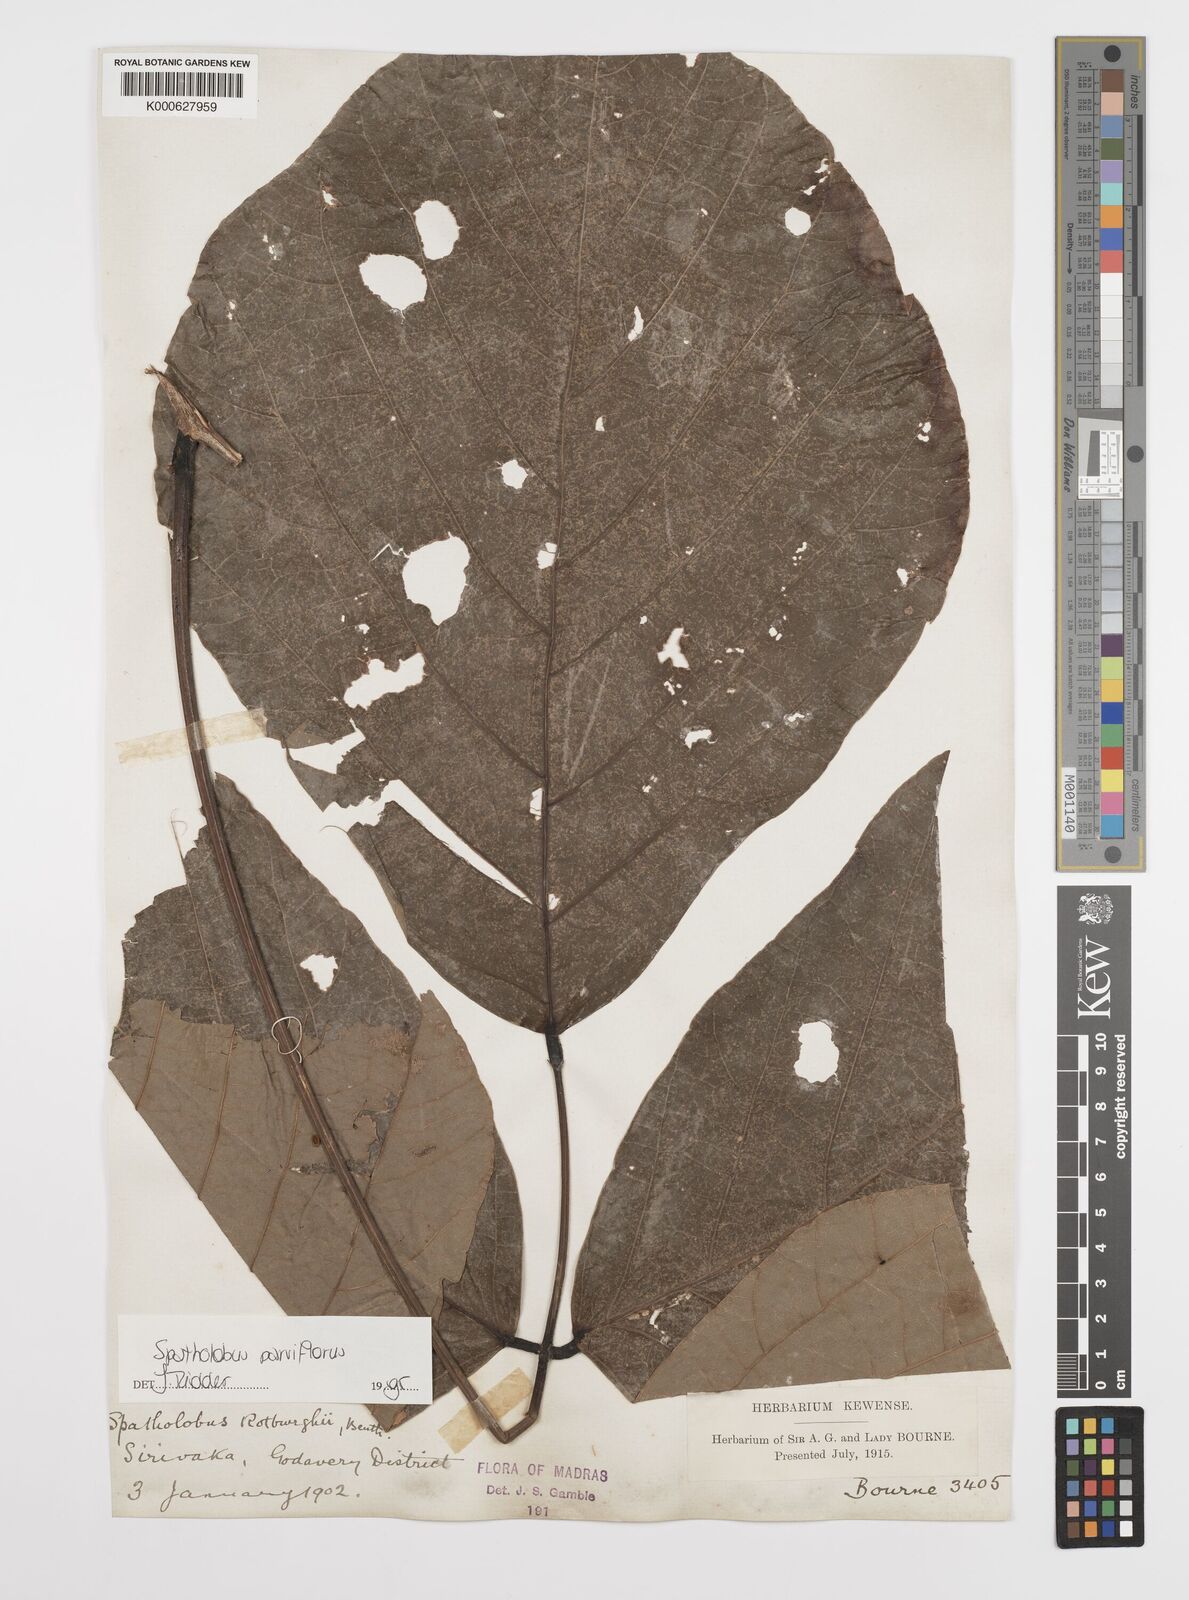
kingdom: Plantae
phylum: Tracheophyta
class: Magnoliopsida
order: Fabales
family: Fabaceae
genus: Spatholobus
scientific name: Spatholobus parviflorus
